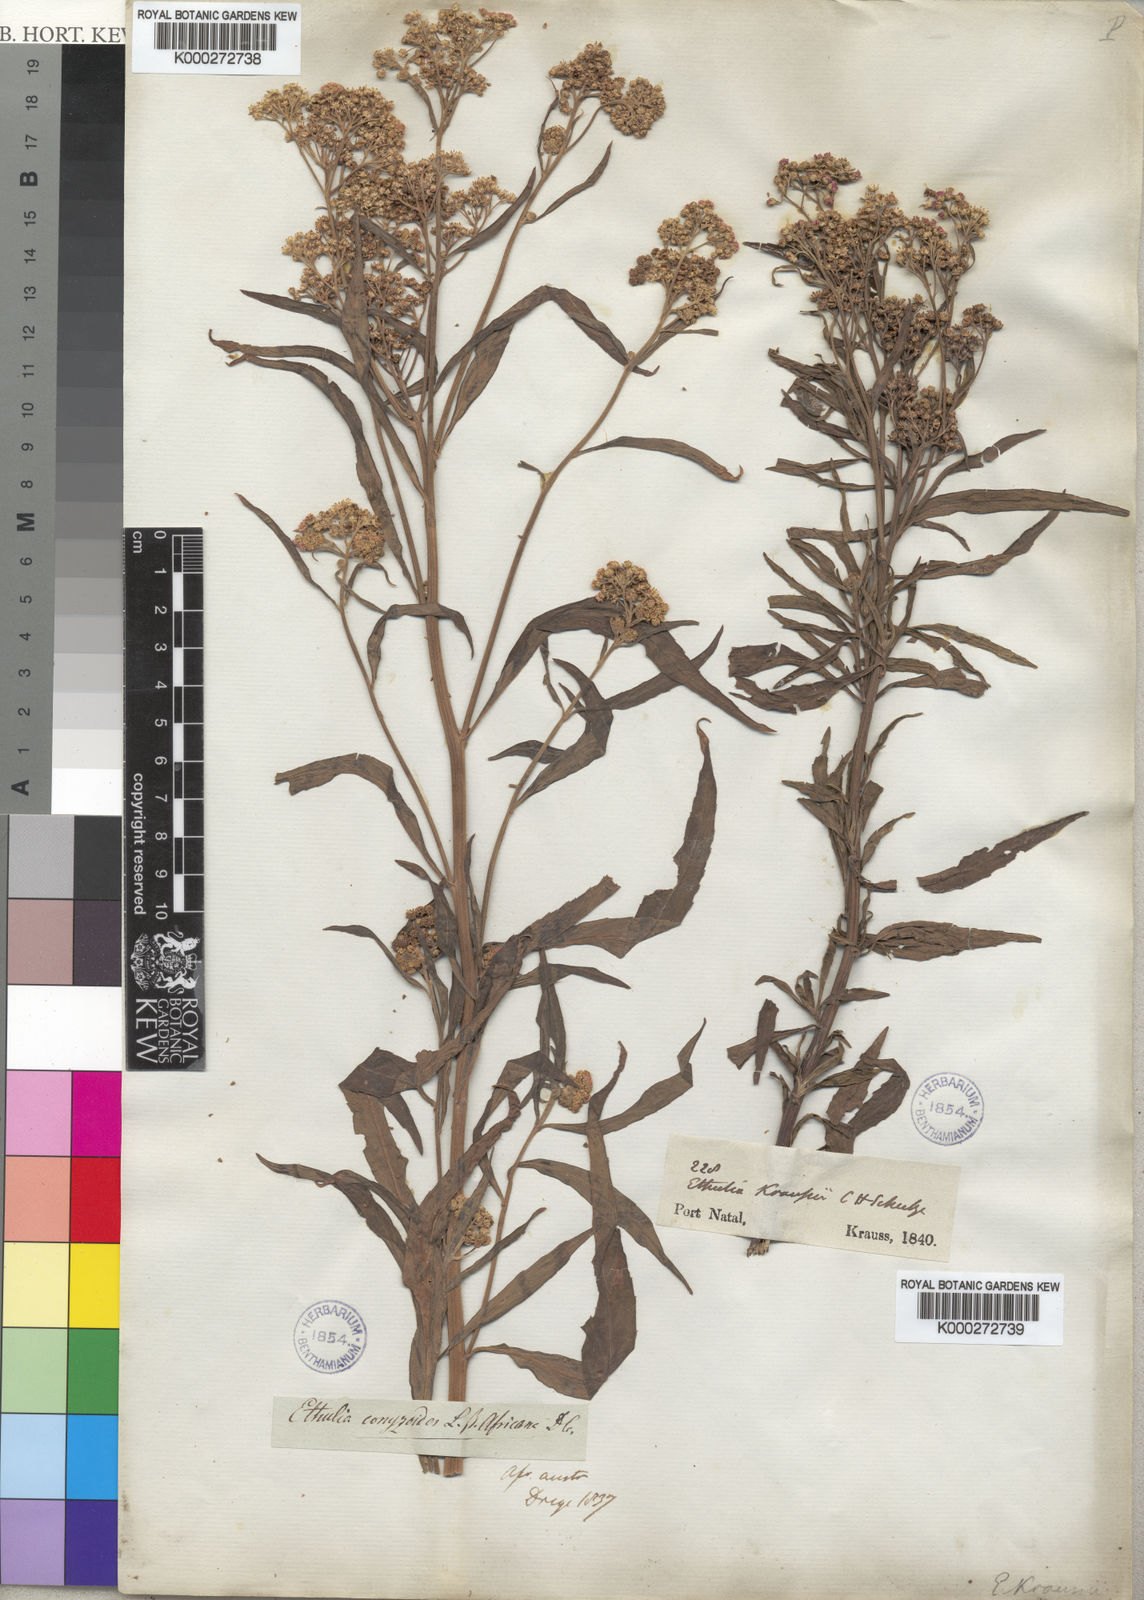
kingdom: Plantae
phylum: Tracheophyta
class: Magnoliopsida
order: Asterales
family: Asteraceae
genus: Ethulia
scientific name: Ethulia conyzoides
